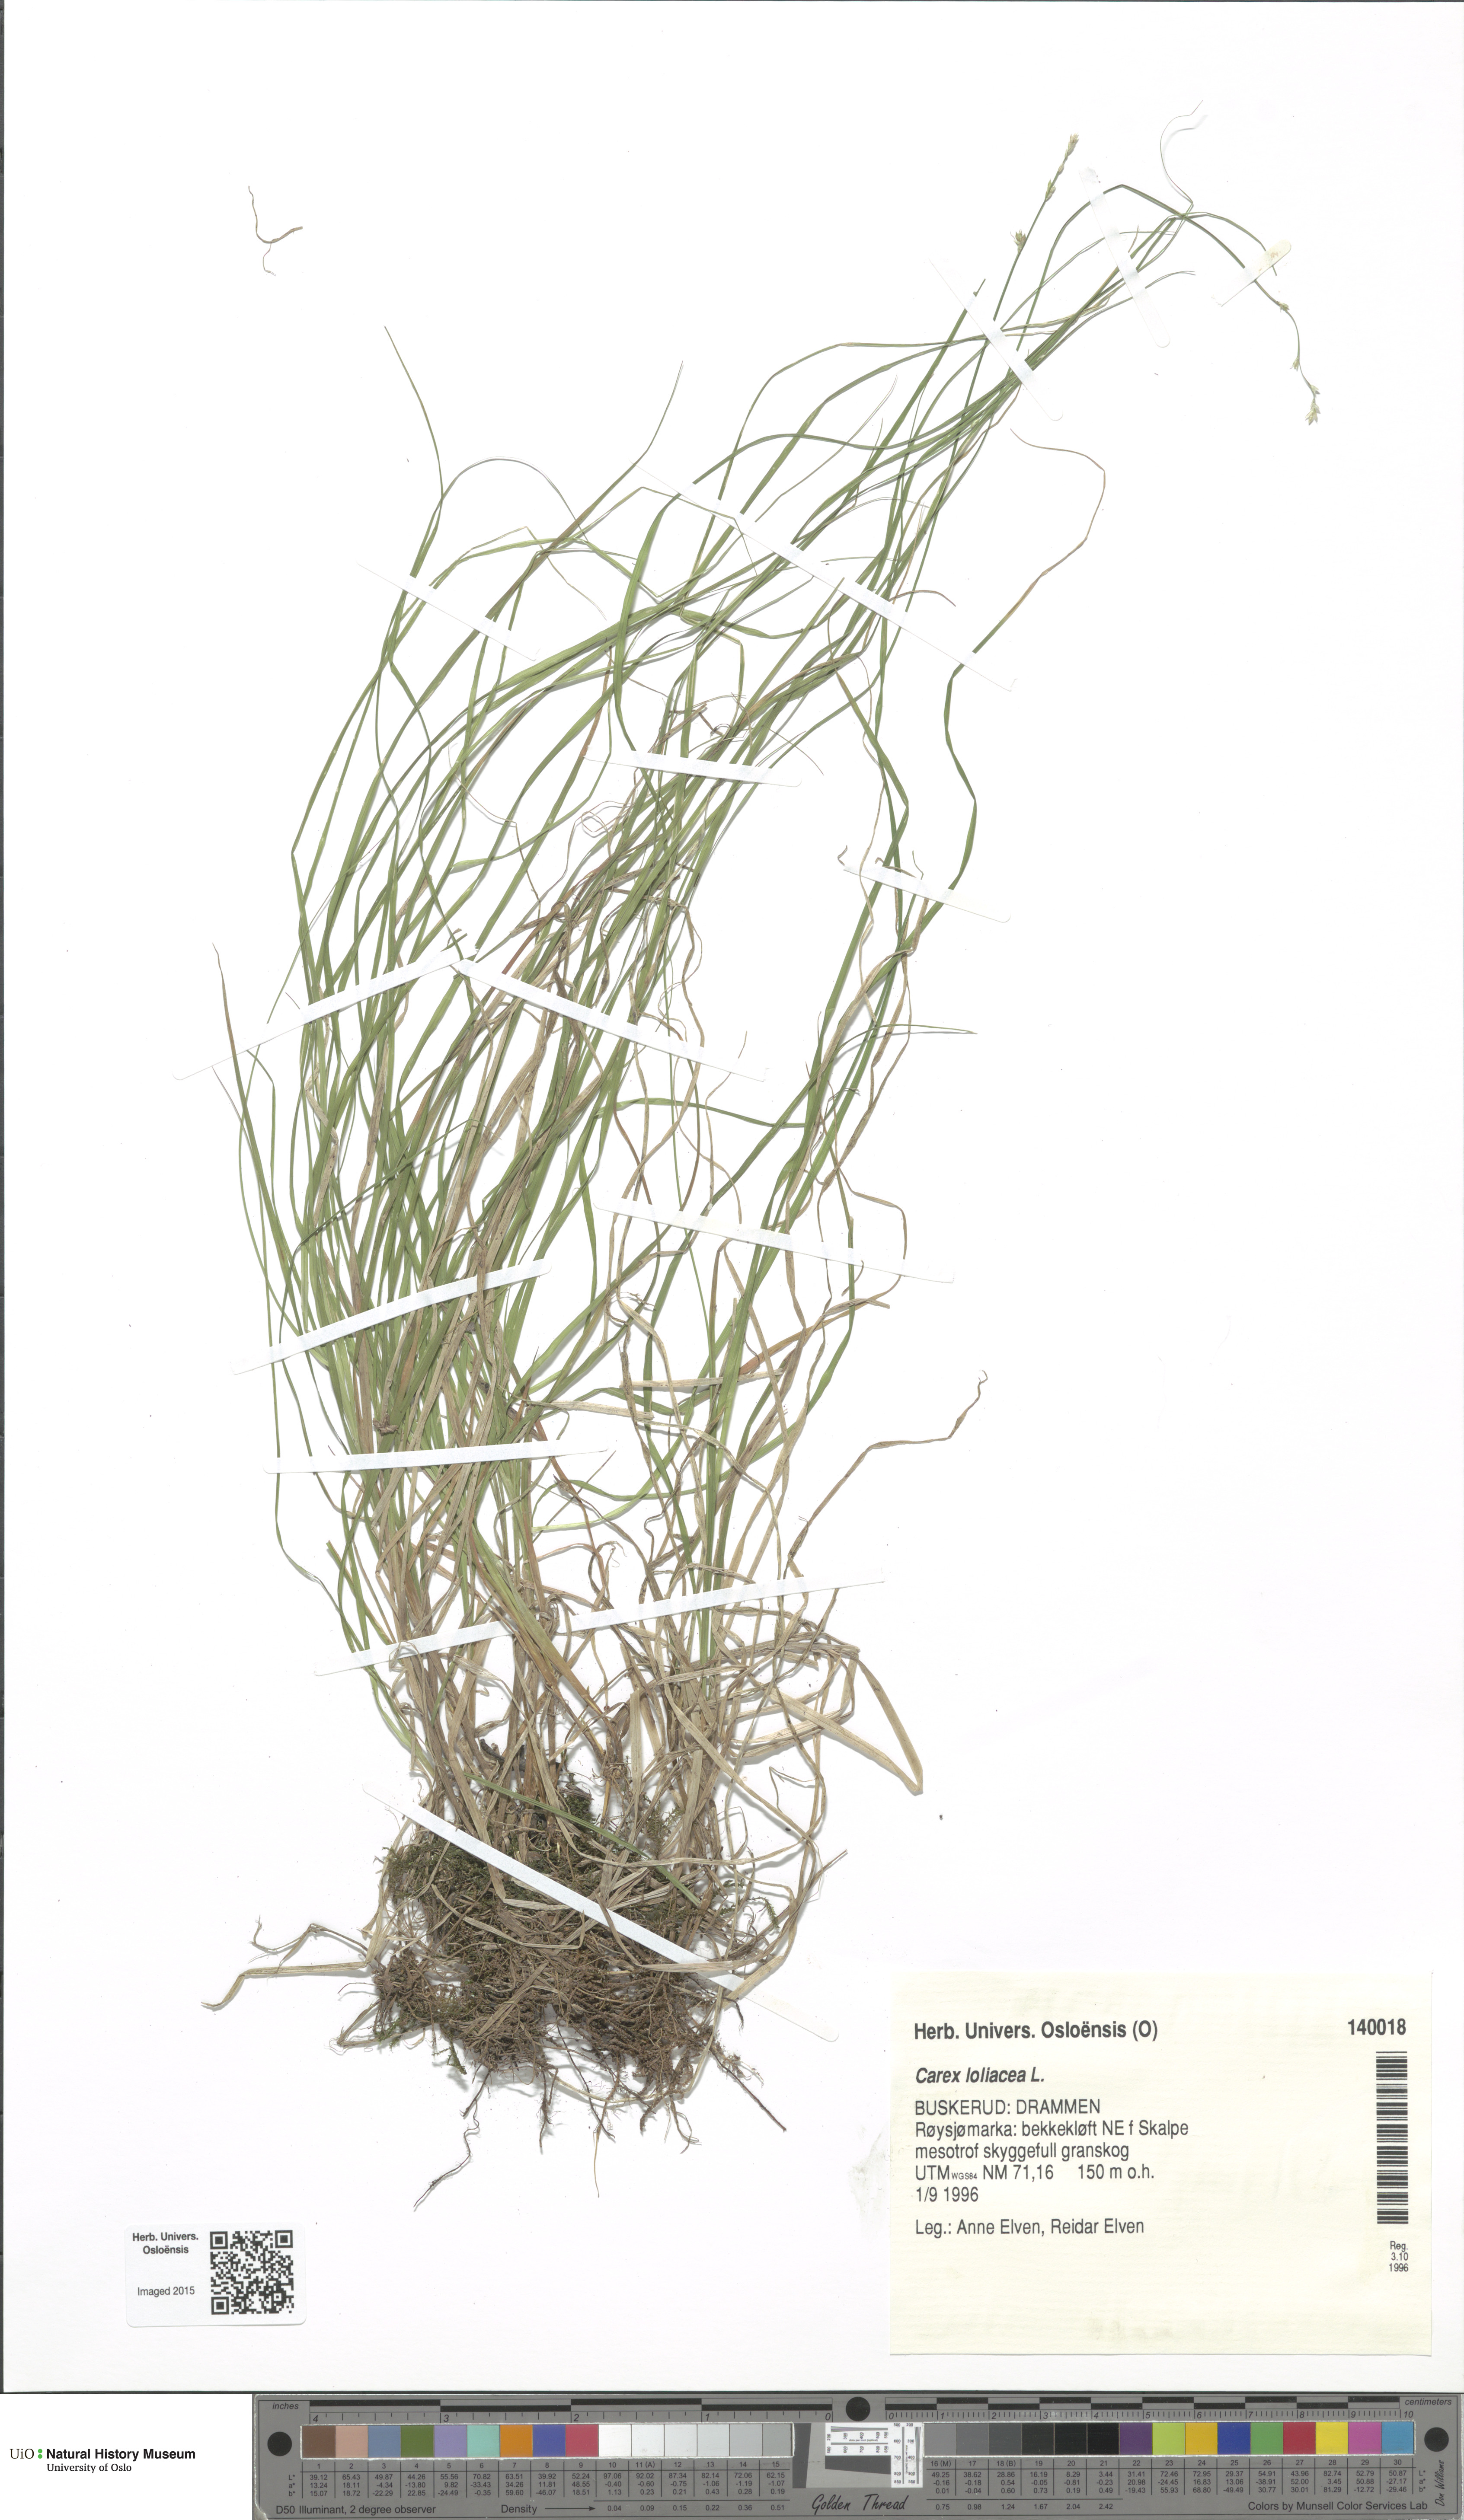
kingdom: Plantae
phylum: Tracheophyta
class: Liliopsida
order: Poales
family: Cyperaceae
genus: Carex
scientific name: Carex loliacea
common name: Ryegrass sedge
